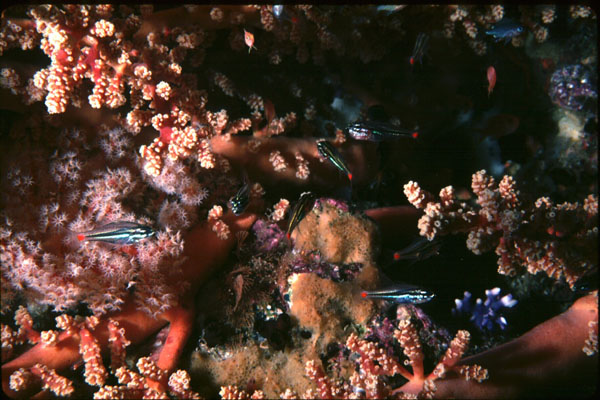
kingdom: Animalia
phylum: Chordata
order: Perciformes
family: Apogonidae
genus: Ostorhinchus
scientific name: Ostorhinchus parvulus
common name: Red-spot cardinalfish
